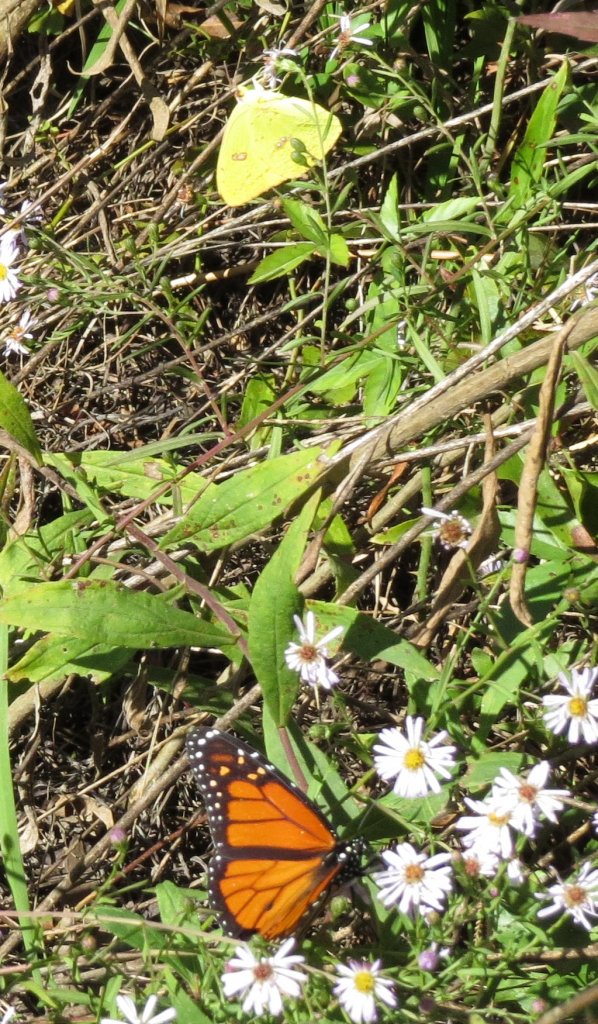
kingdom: Animalia
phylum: Arthropoda
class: Insecta
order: Lepidoptera
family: Pieridae
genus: Phoebis
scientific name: Phoebis sennae
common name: Cloudless Sulphur
